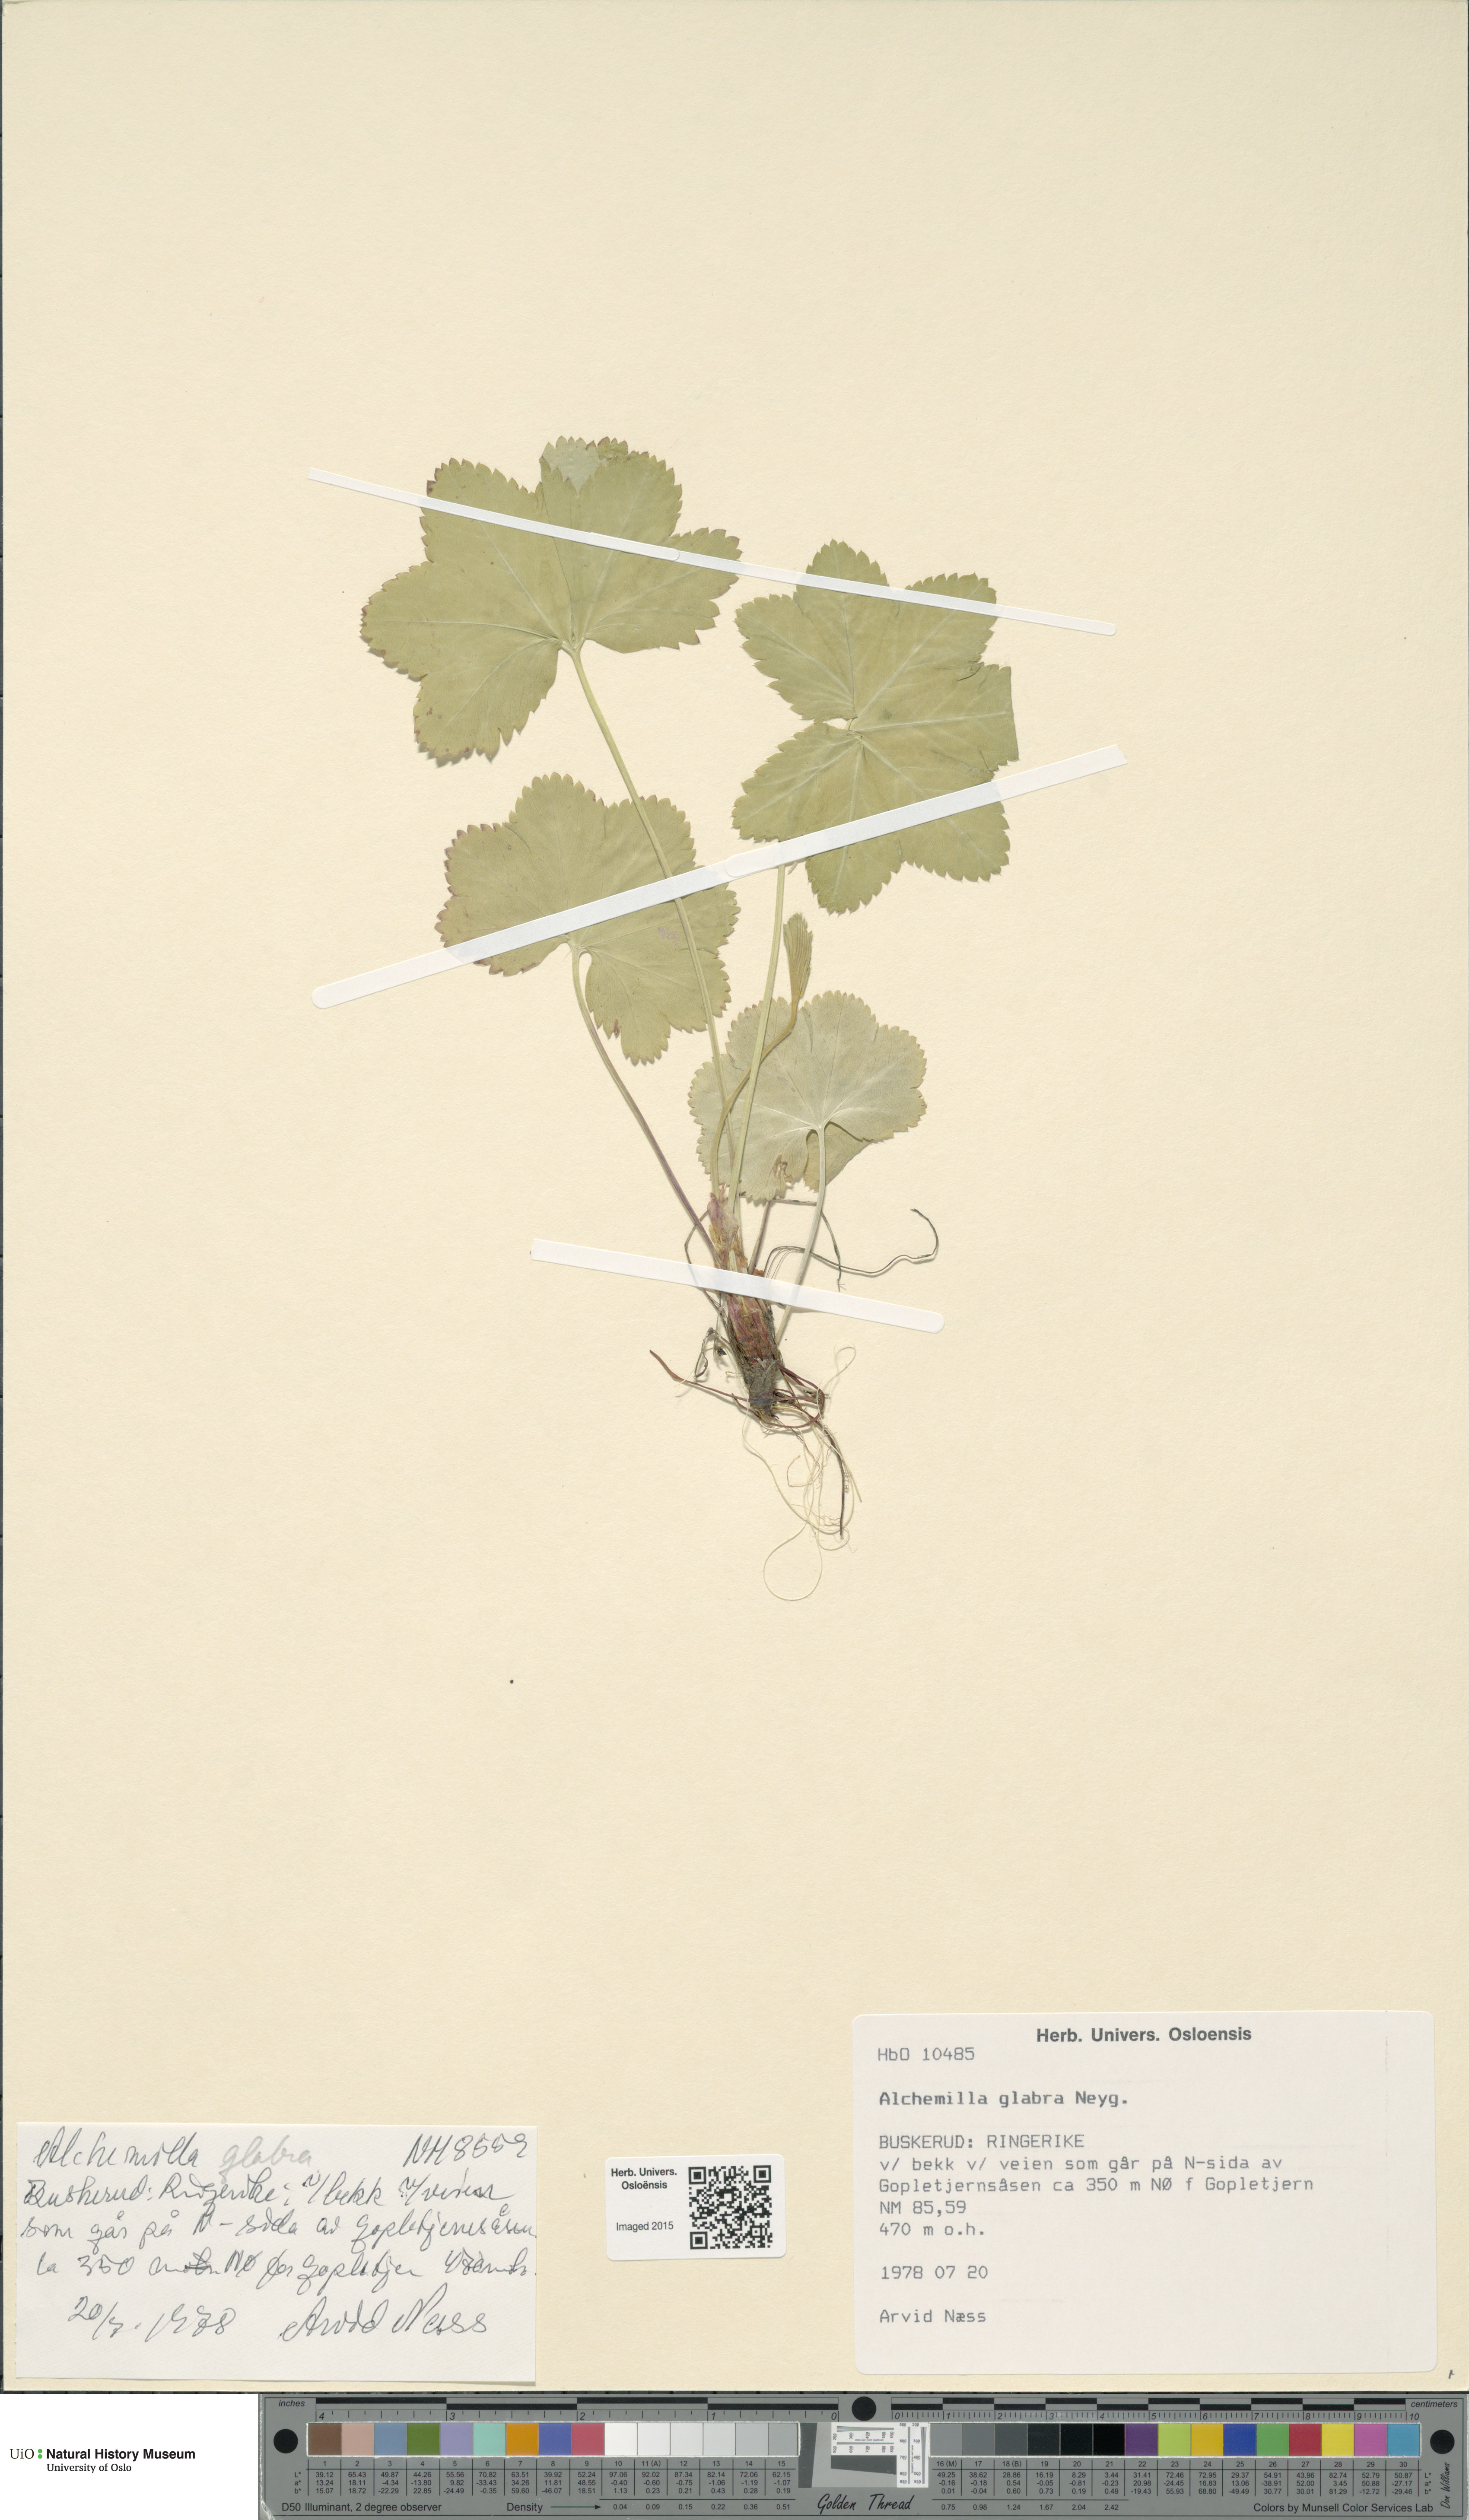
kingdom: Plantae
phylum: Tracheophyta
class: Magnoliopsida
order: Rosales
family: Rosaceae
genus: Alchemilla
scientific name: Alchemilla glabra
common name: Smooth lady's-mantle
